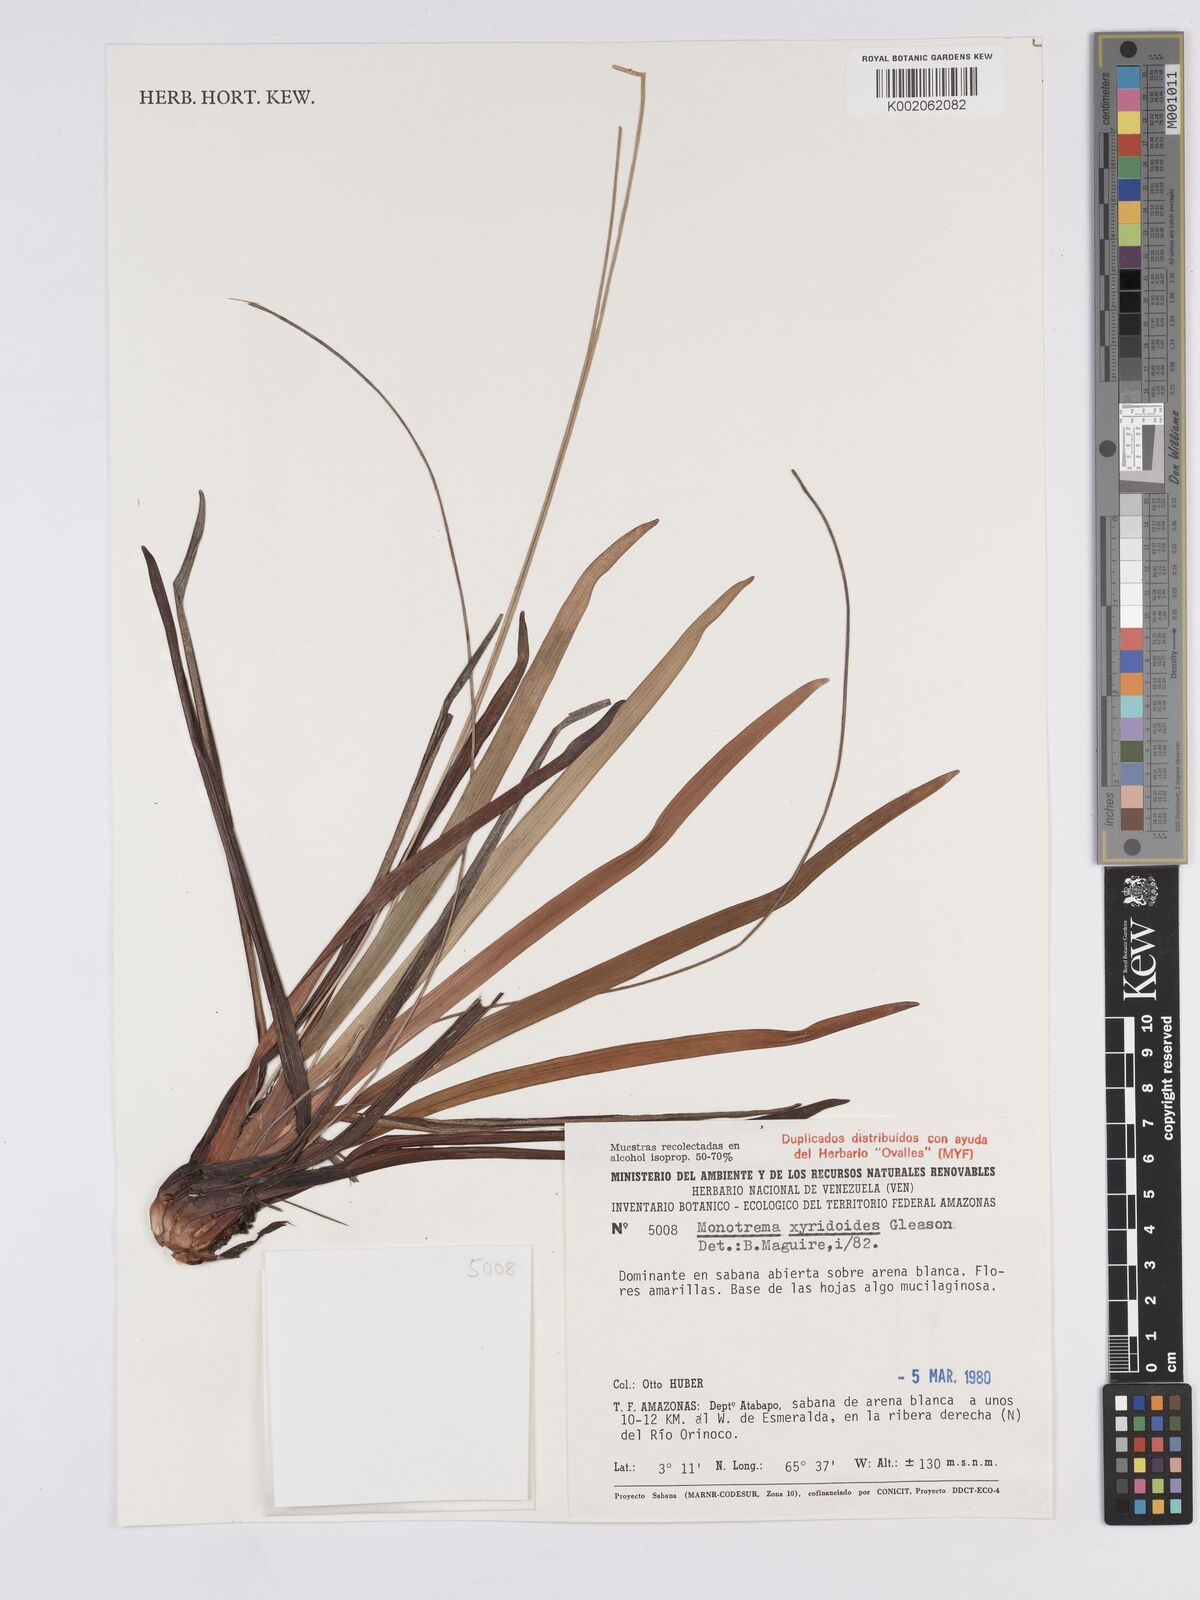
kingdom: Plantae
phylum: Tracheophyta
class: Liliopsida
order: Poales
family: Rapateaceae
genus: Monotrema
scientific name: Monotrema xyridoides
